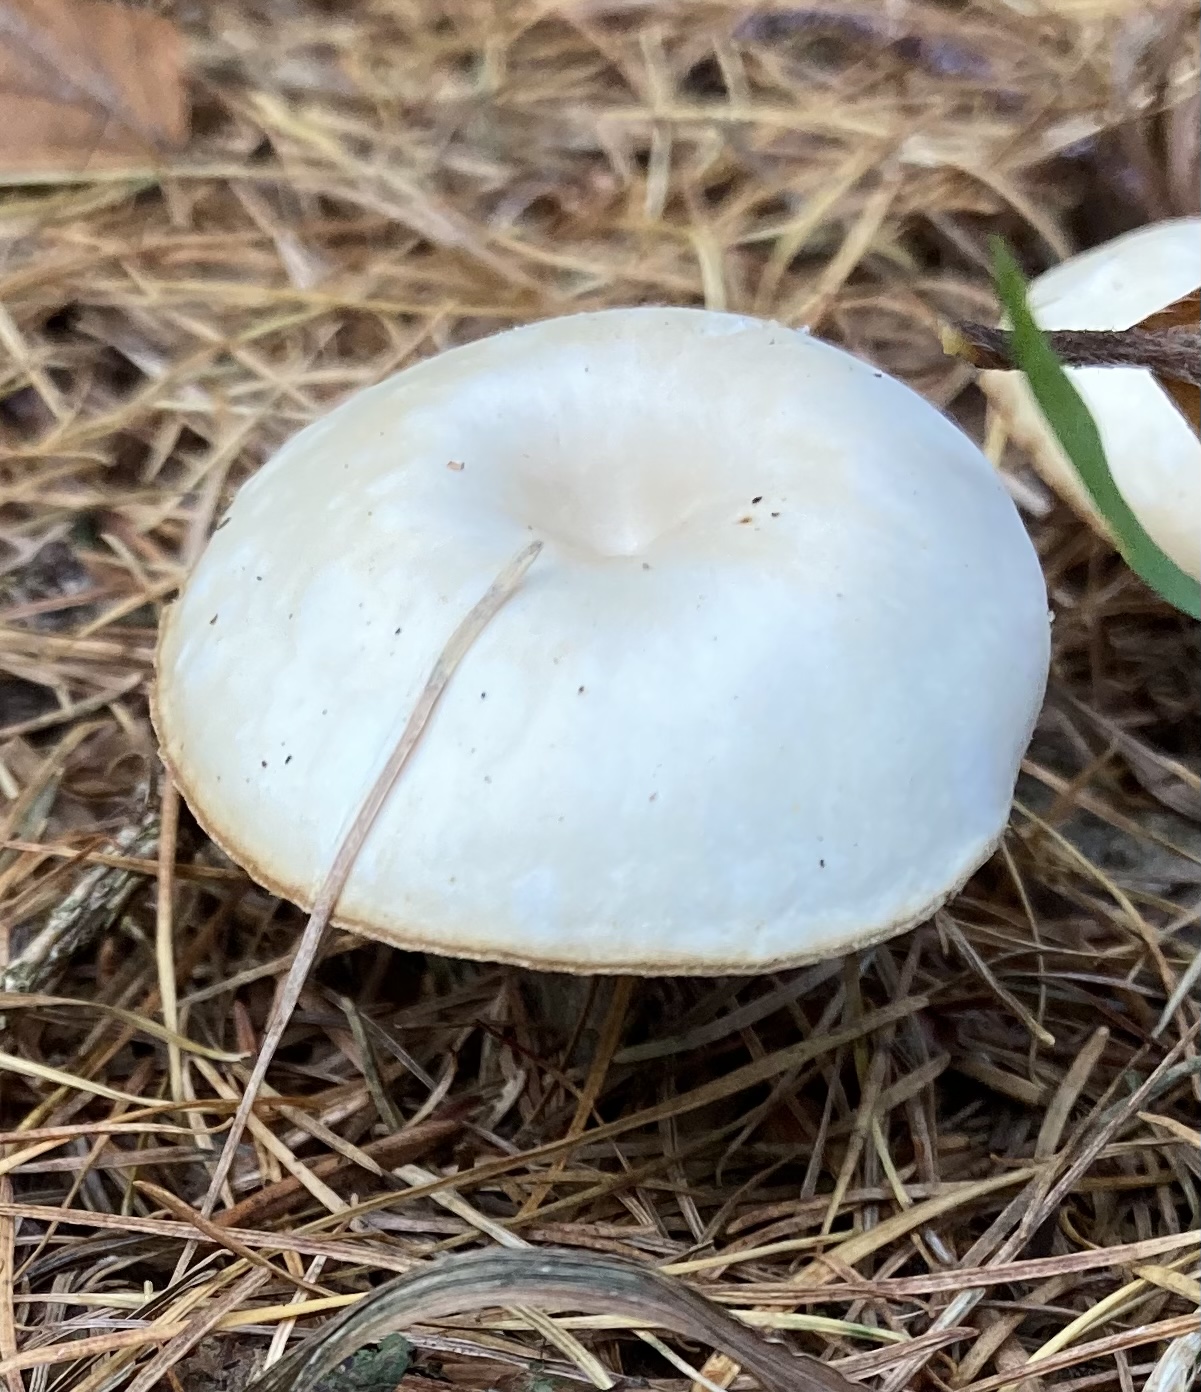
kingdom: Fungi
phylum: Basidiomycota
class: Agaricomycetes
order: Agaricales
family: Tricholomataceae
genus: Clitocybe
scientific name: Clitocybe
